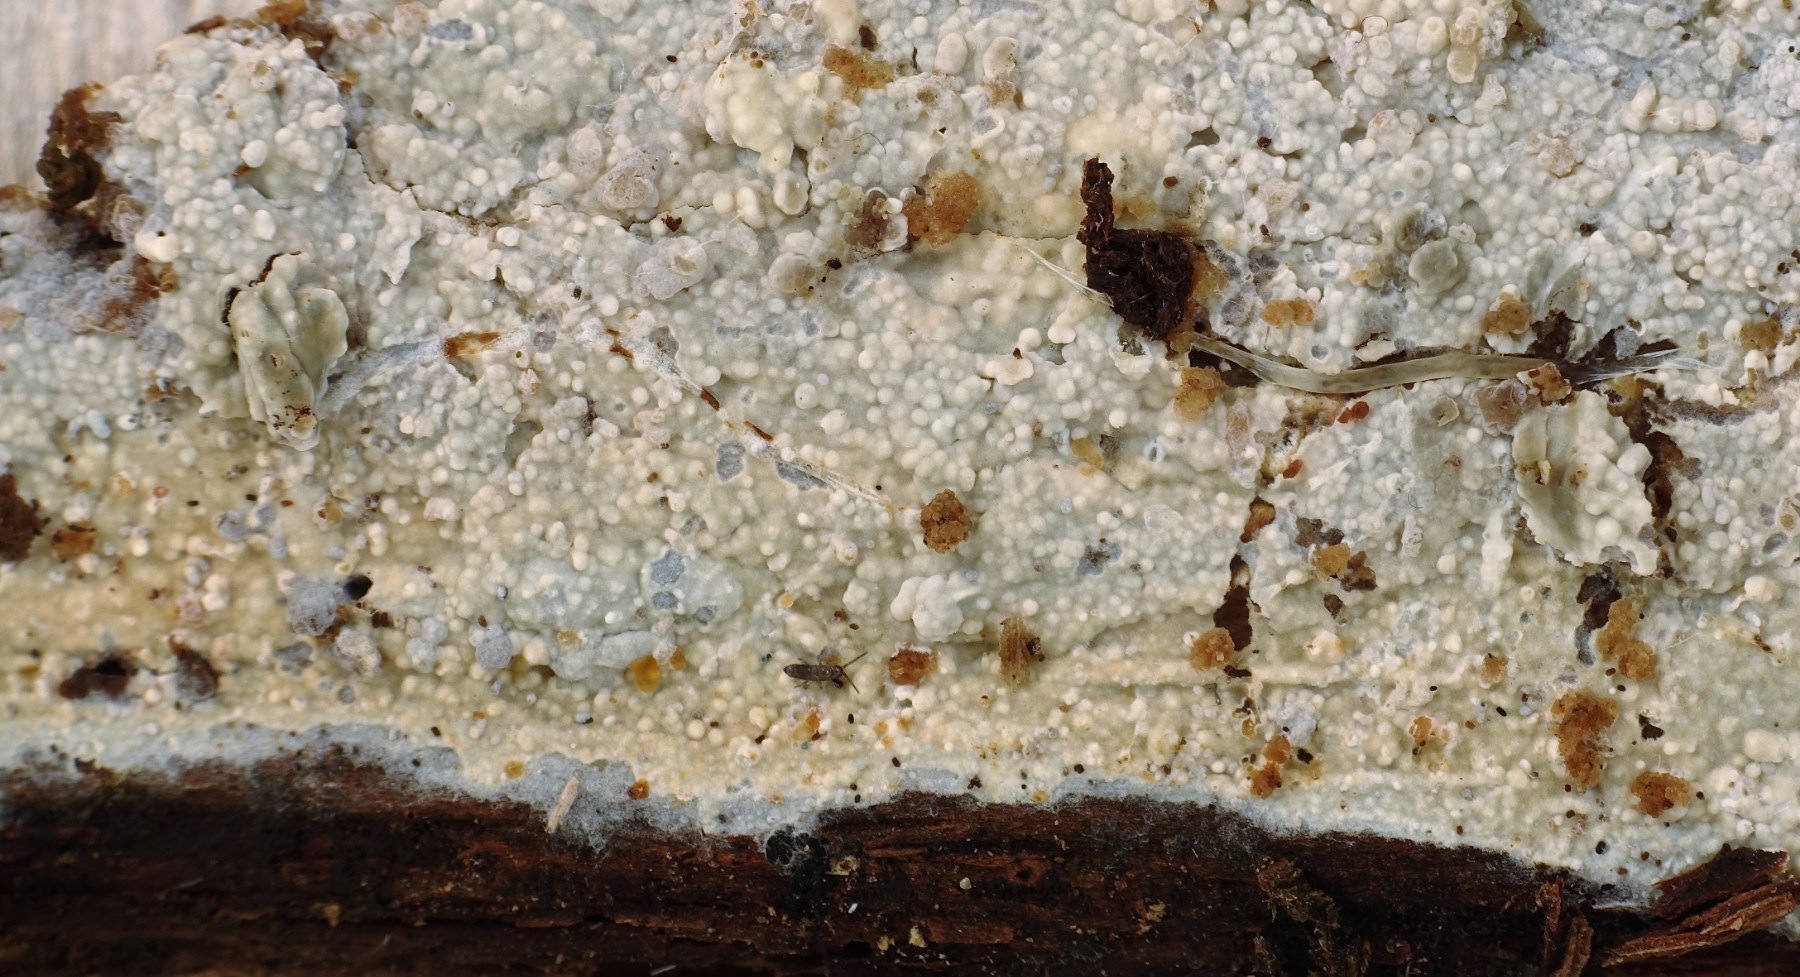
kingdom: Fungi
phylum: Basidiomycota
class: Agaricomycetes
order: Corticiales
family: Corticiaceae
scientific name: Corticiaceae
